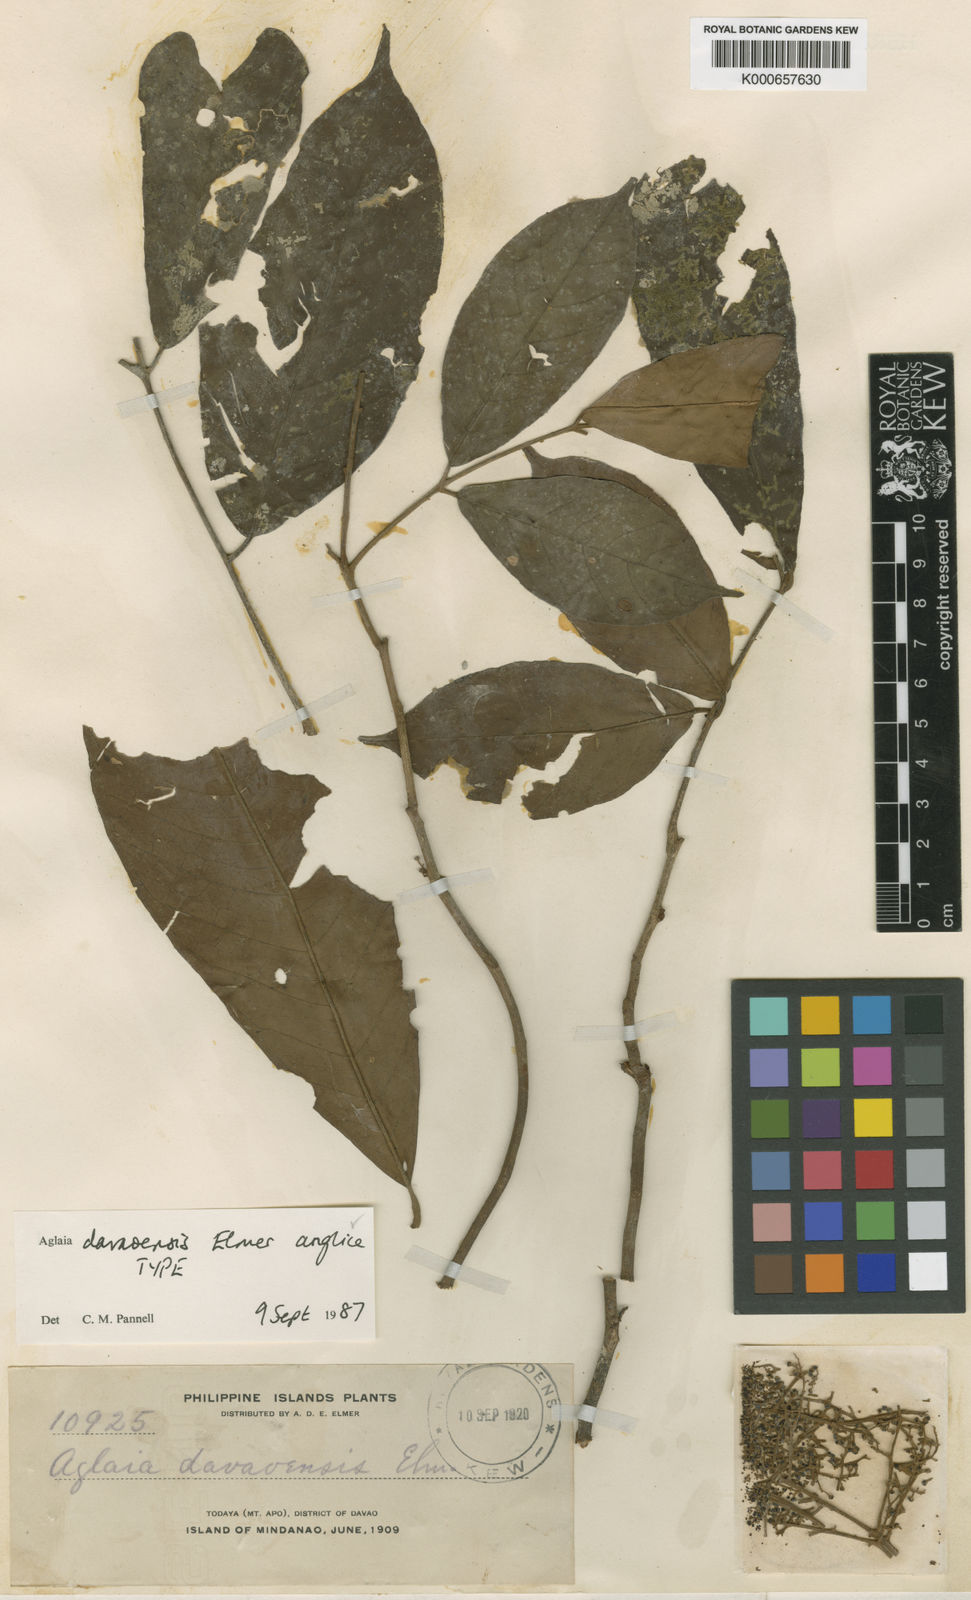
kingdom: Plantae
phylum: Tracheophyta
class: Magnoliopsida
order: Sapindales
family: Meliaceae
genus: Aglaia
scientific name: Aglaia elliptica
